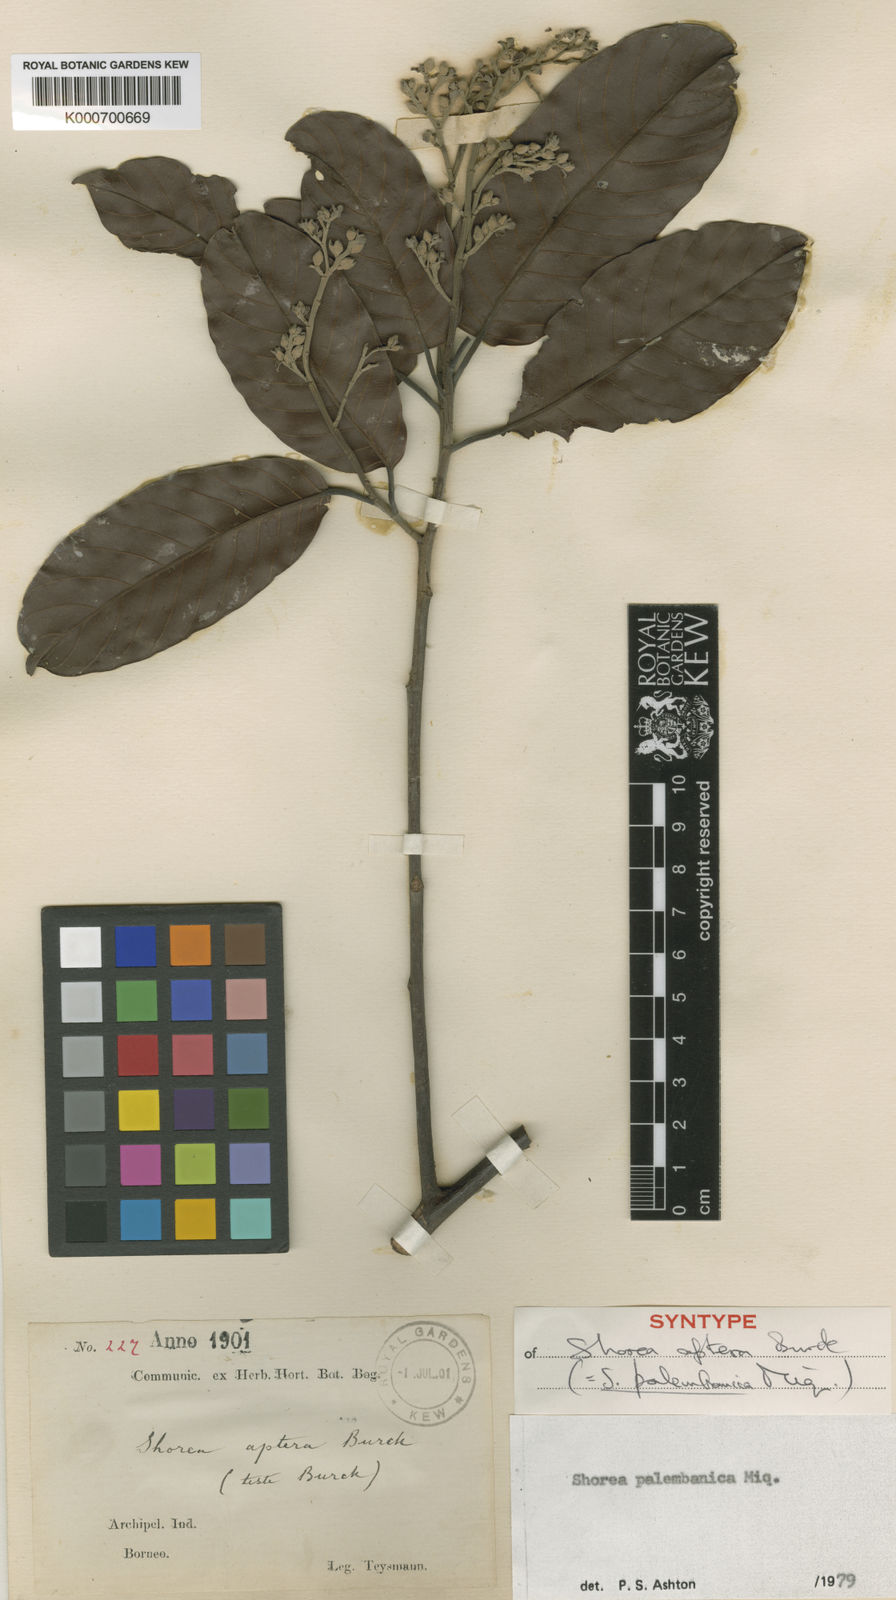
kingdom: Plantae
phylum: Tracheophyta
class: Magnoliopsida
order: Malvales
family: Dipterocarpaceae
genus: Shorea
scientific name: Shorea palembanica
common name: Light red meranti
